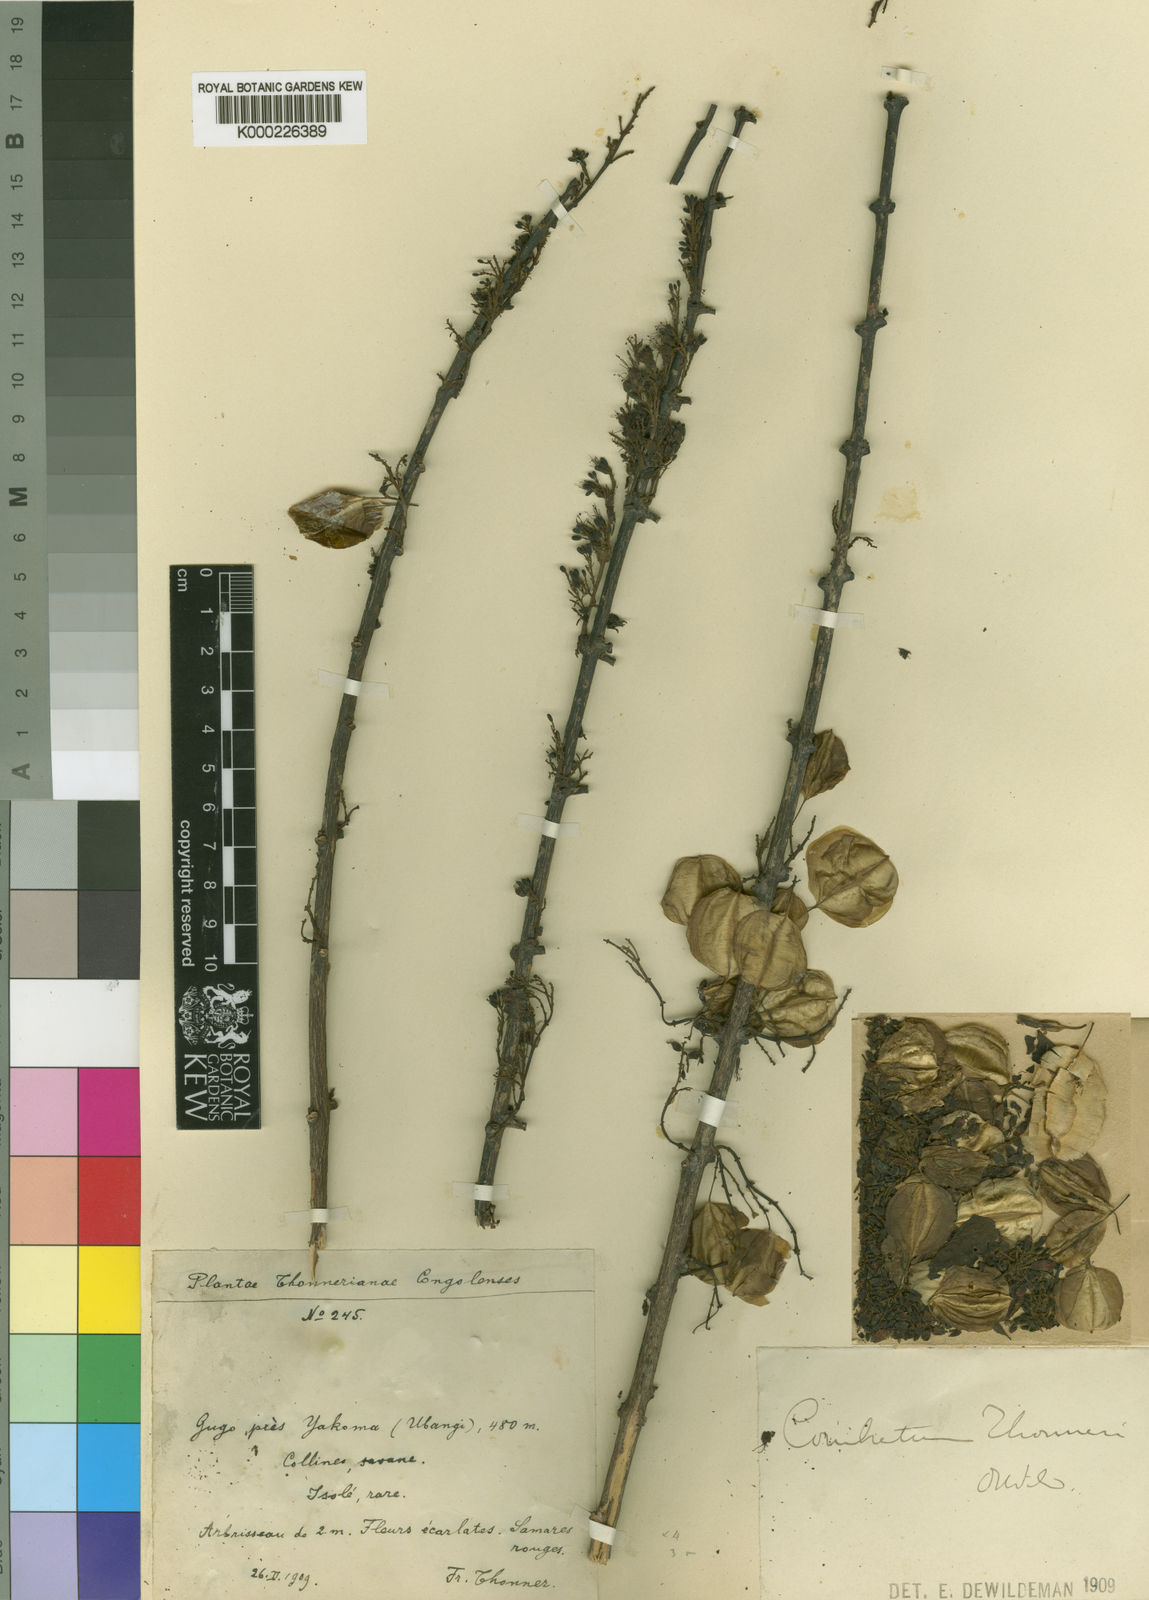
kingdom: Plantae
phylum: Tracheophyta
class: Magnoliopsida
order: Myrtales
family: Combretaceae
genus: Combretum
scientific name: Combretum paniculatum
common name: Fire vine
